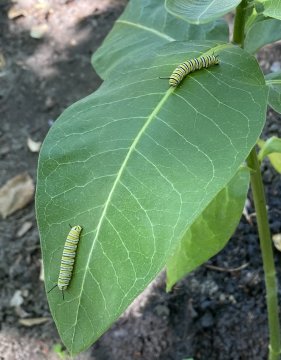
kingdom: Animalia
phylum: Arthropoda
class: Insecta
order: Lepidoptera
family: Nymphalidae
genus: Danaus
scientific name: Danaus plexippus
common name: Monarch
